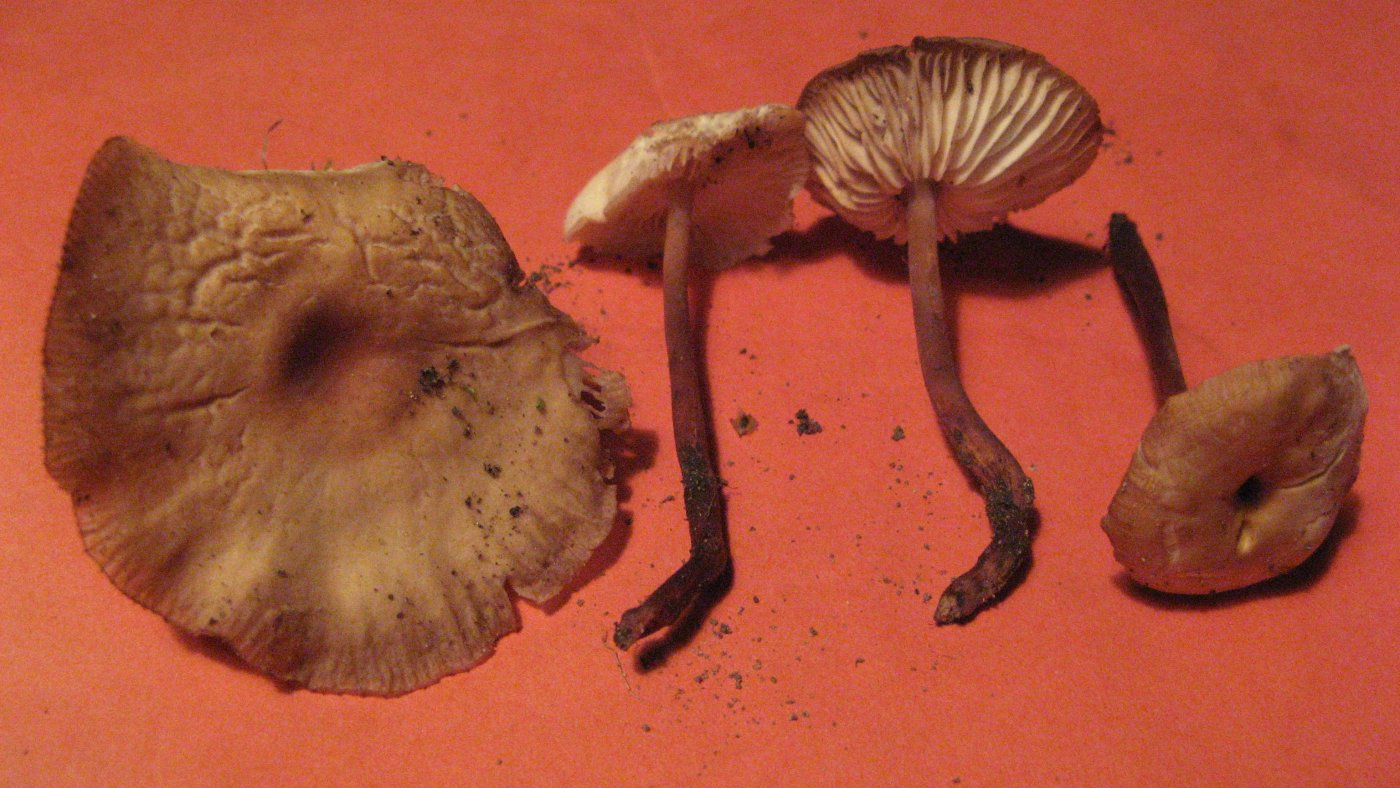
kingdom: Fungi
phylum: Basidiomycota
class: Agaricomycetes
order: Agaricales
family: Omphalotaceae
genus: Gymnopus
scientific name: Gymnopus erythropus
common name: rødstokket fladhat
